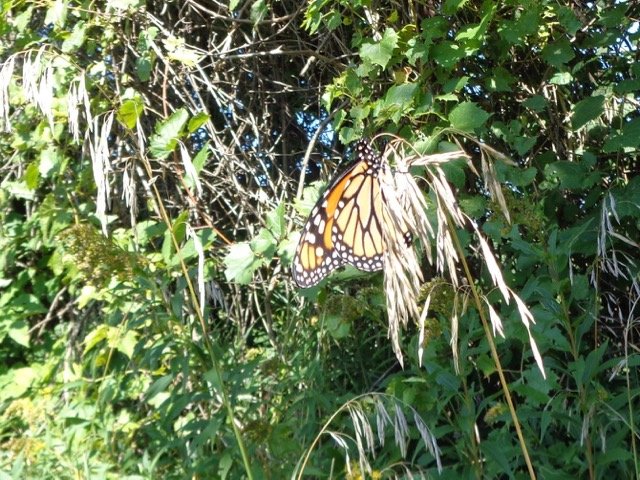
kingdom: Animalia
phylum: Arthropoda
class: Insecta
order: Lepidoptera
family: Nymphalidae
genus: Danaus
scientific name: Danaus plexippus
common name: Monarch
